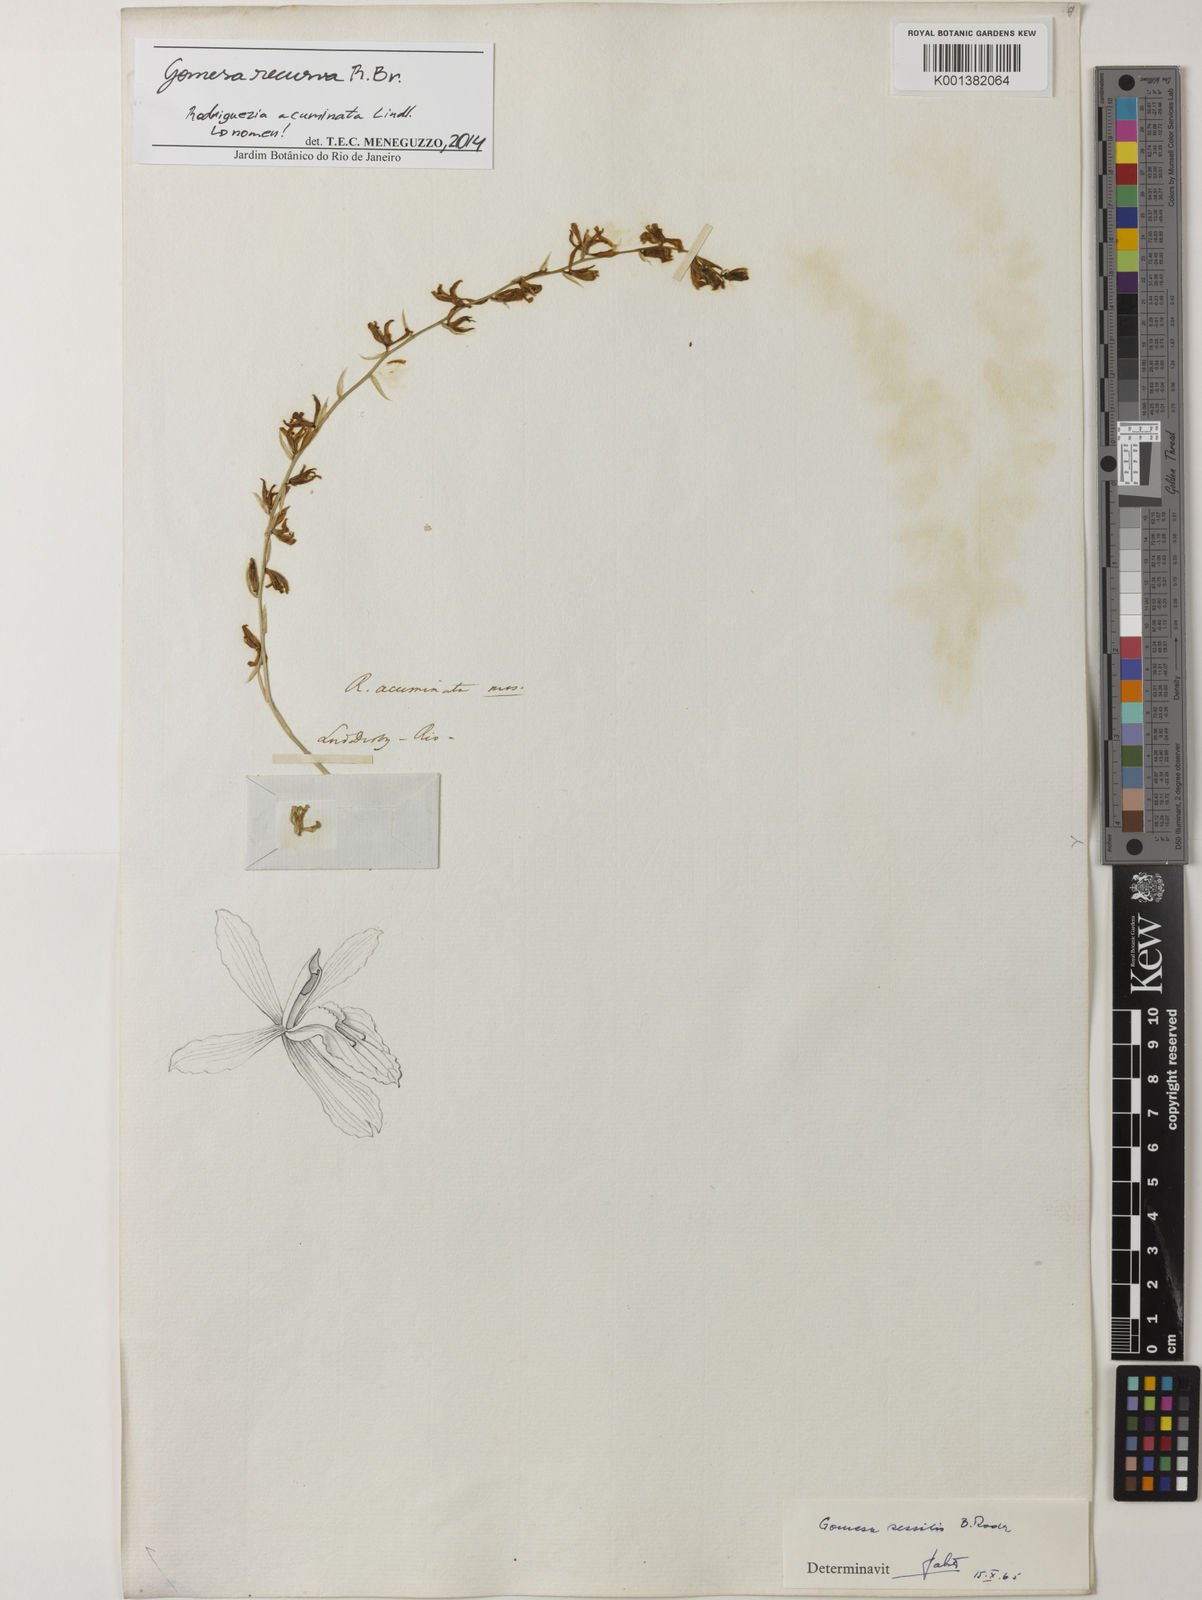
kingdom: Plantae
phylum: Tracheophyta
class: Liliopsida
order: Asparagales
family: Orchidaceae
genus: Gomesa
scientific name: Gomesa recurva
